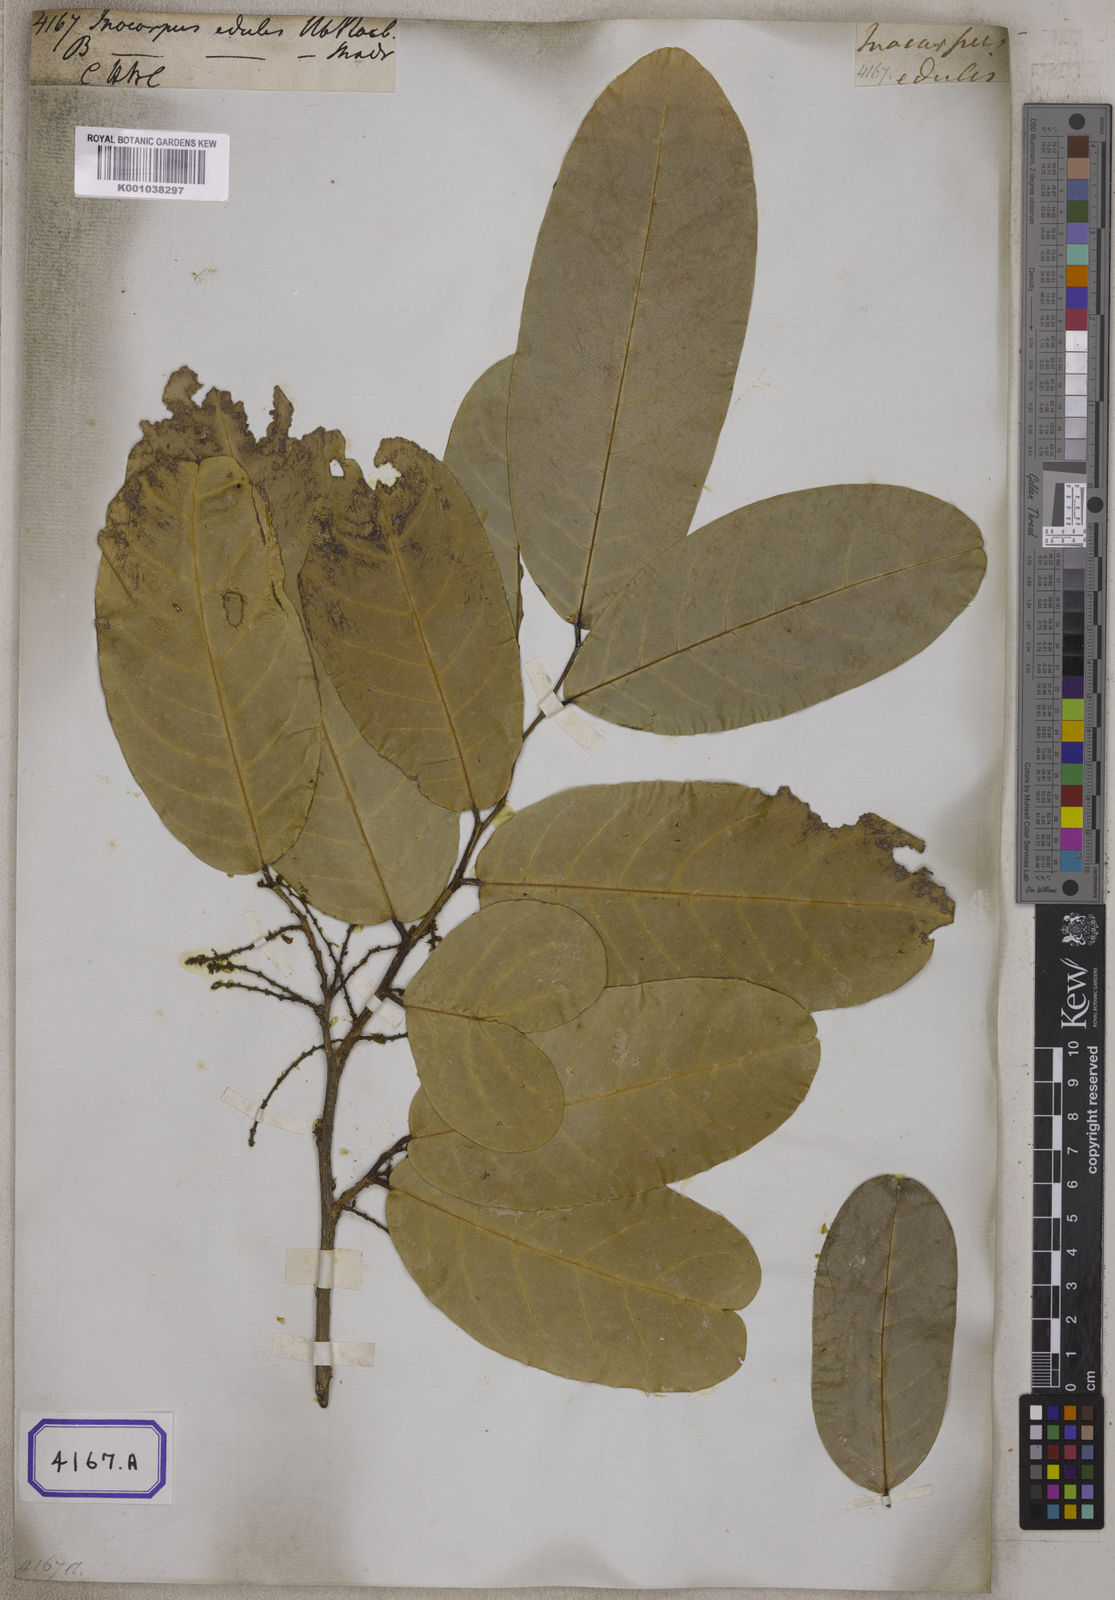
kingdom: Plantae
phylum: Tracheophyta
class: Magnoliopsida
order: Fabales
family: Fabaceae
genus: Inocarpus
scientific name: Inocarpus fagifer
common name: Polynesian chestnut
